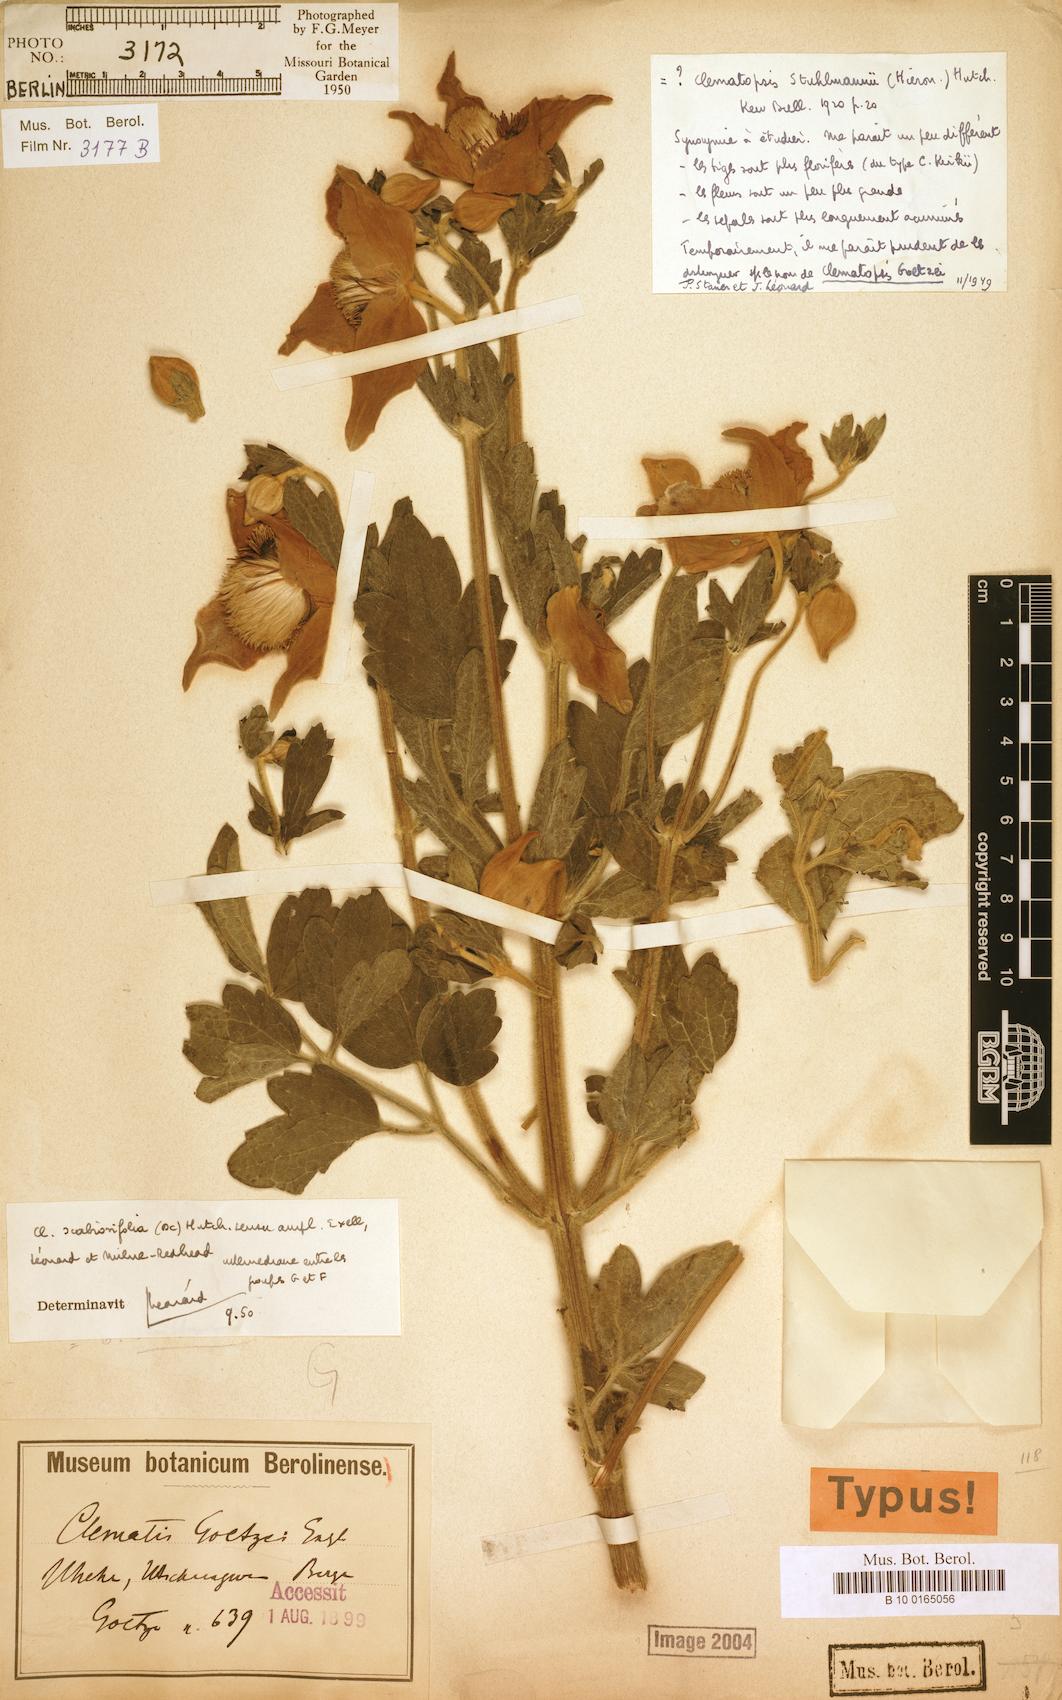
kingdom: Plantae
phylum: Tracheophyta
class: Magnoliopsida
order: Ranunculales
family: Ranunculaceae
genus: Clematis
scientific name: Clematis villosa
